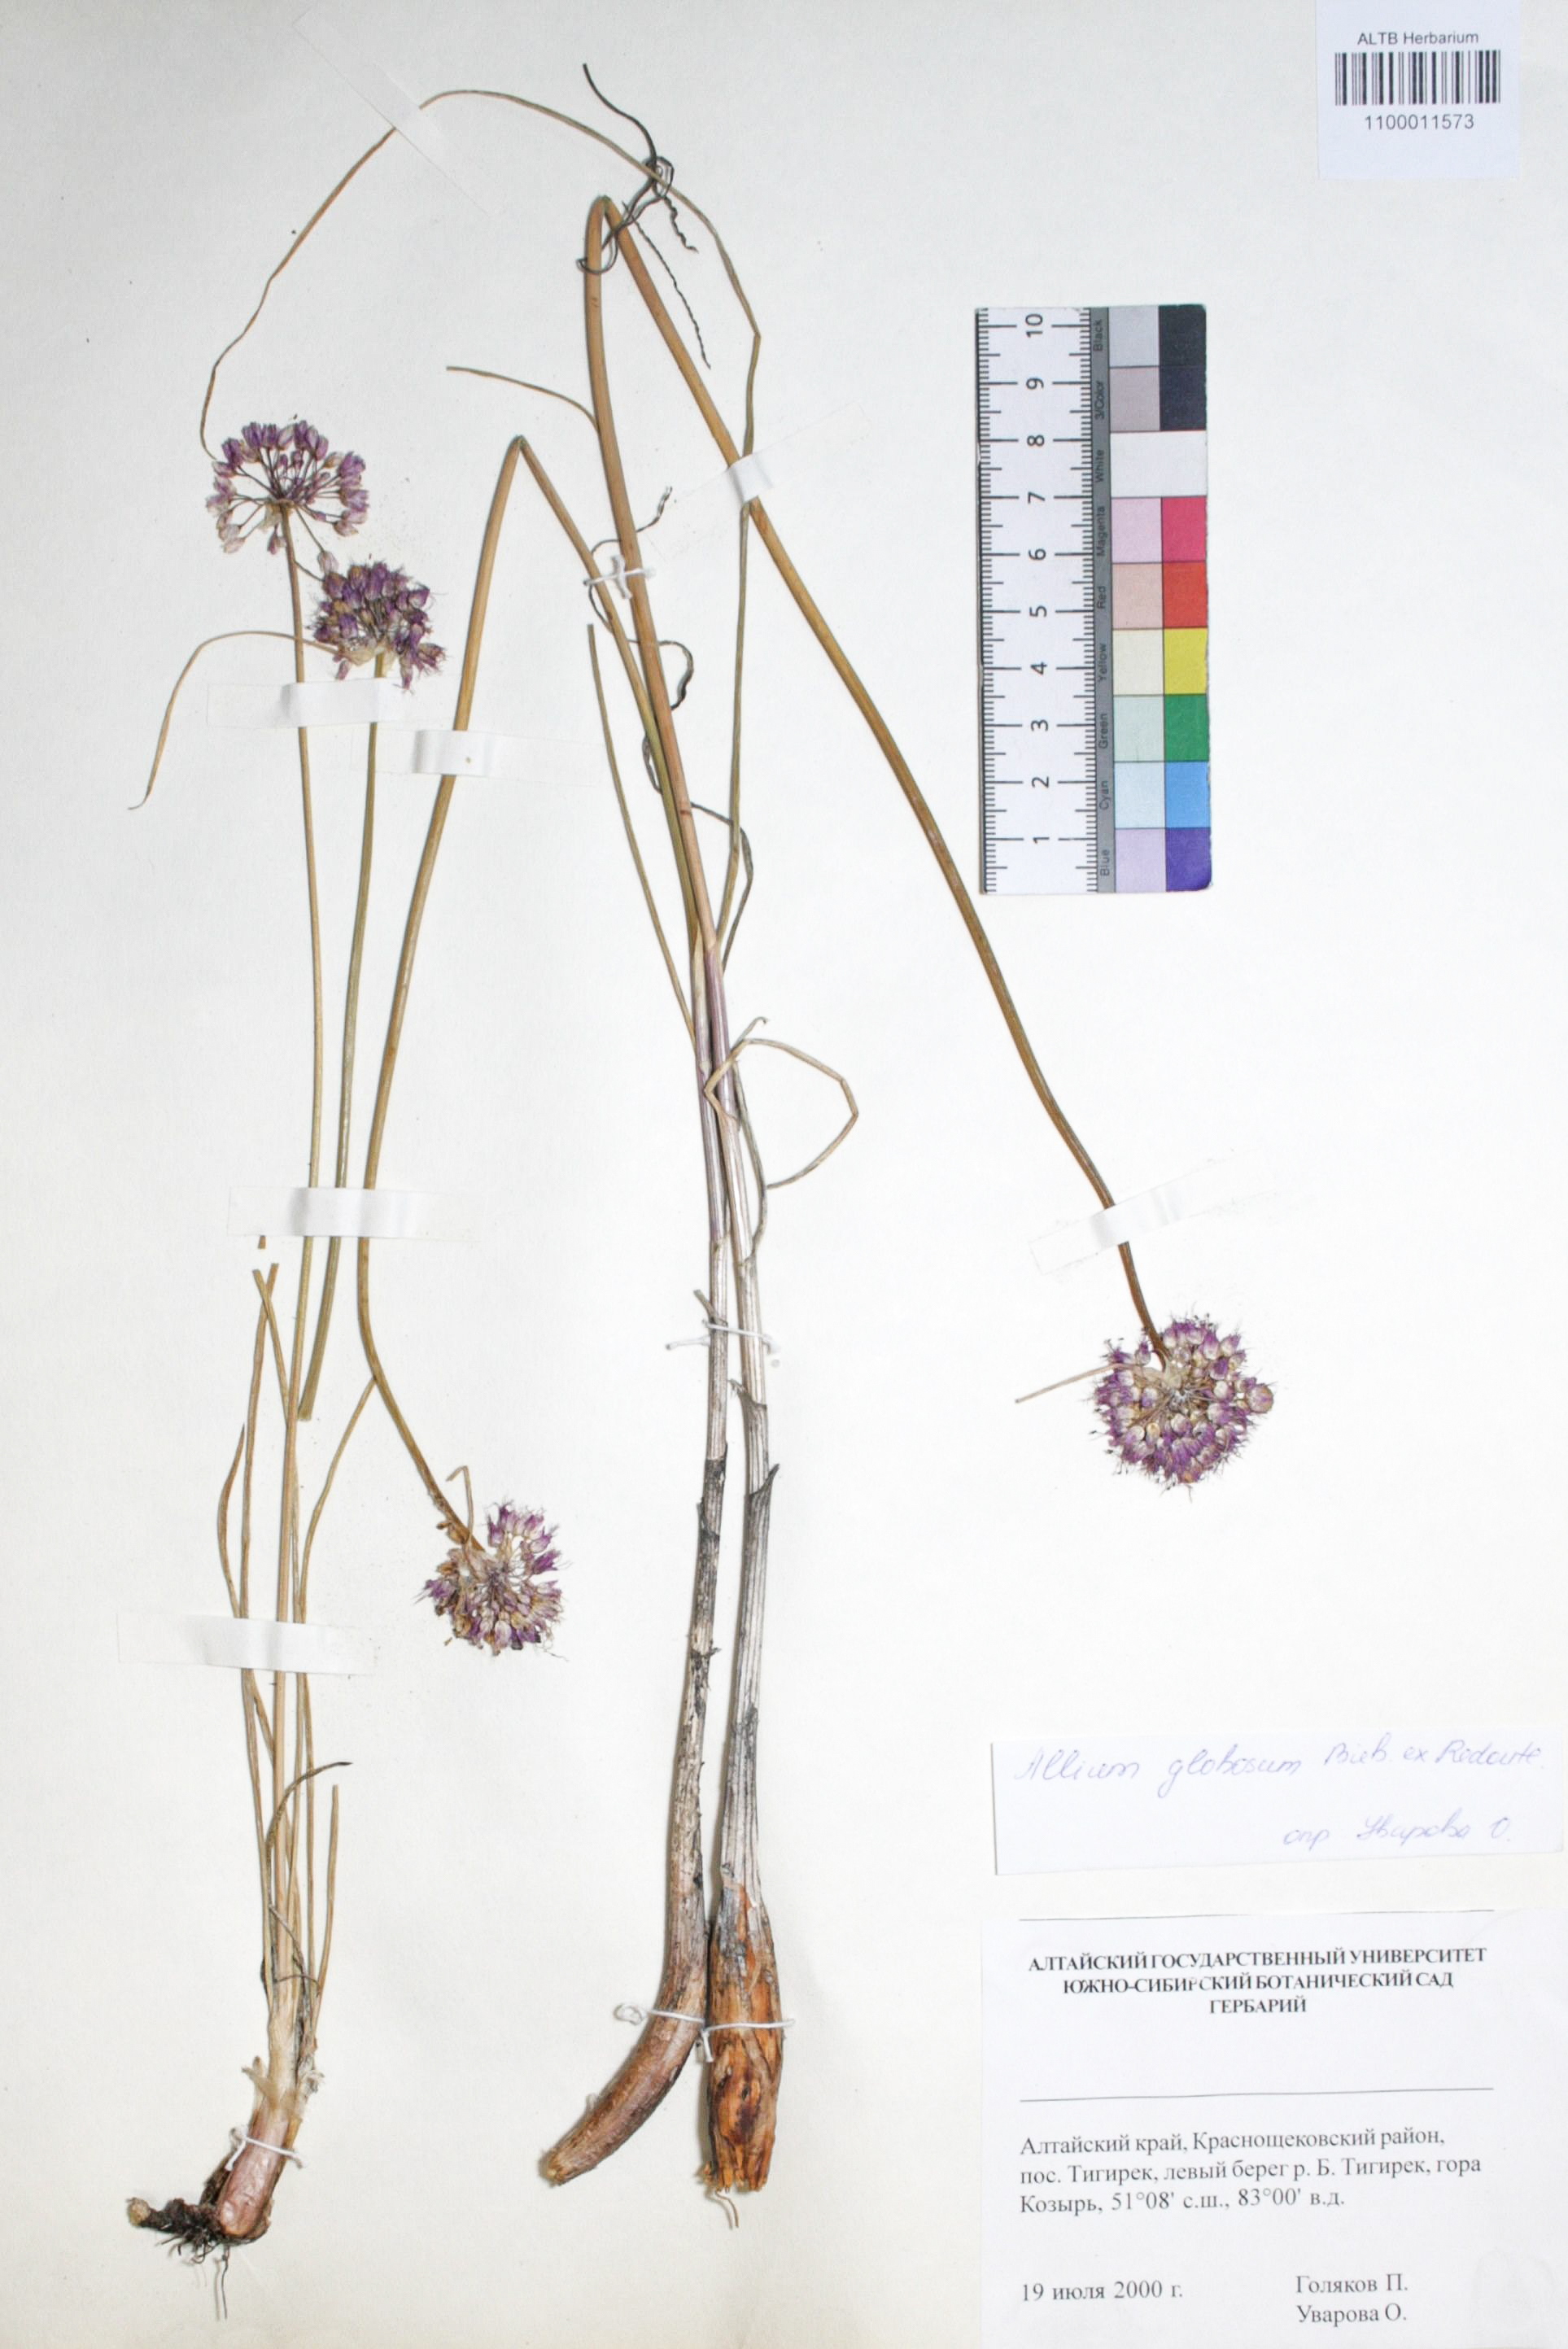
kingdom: Plantae
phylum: Tracheophyta
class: Liliopsida
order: Asparagales
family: Amaryllidaceae
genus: Allium
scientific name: Allium saxatile
